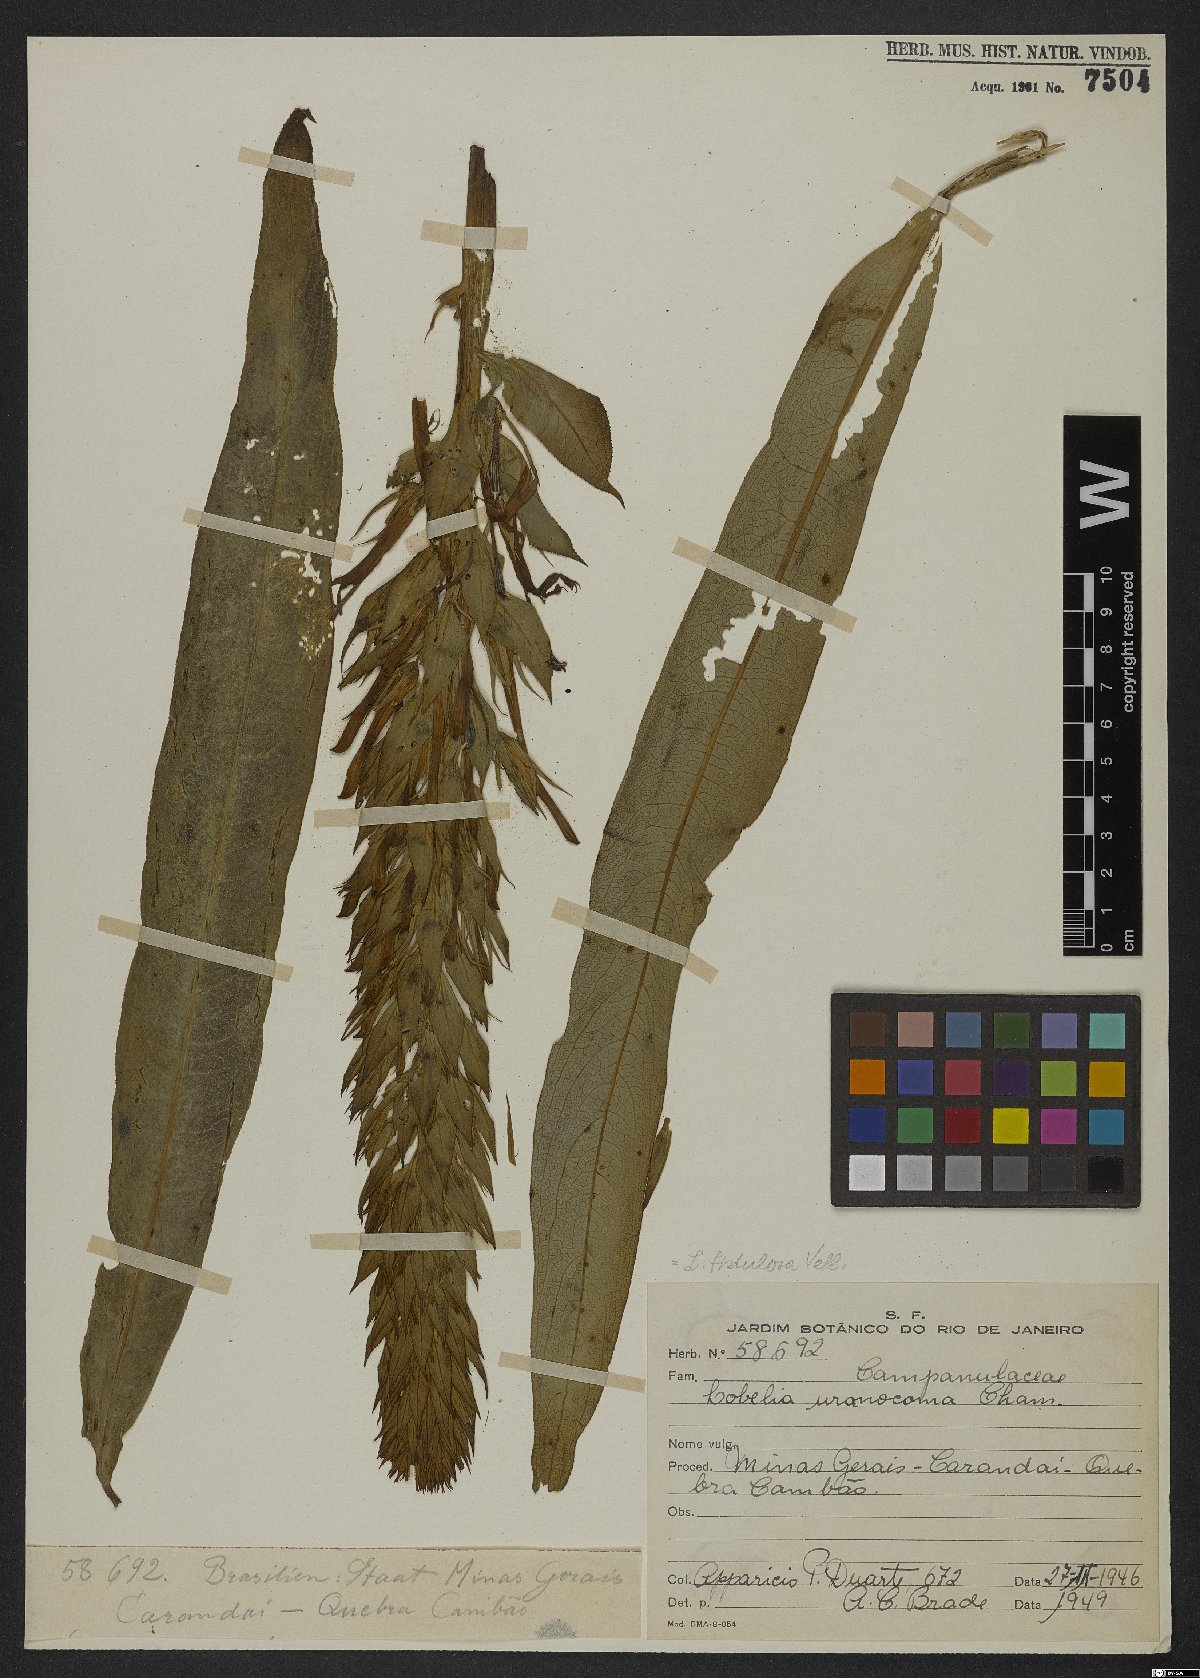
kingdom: Plantae
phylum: Tracheophyta
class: Magnoliopsida
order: Asterales
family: Campanulaceae
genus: Lobelia
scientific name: Lobelia fistulosa
